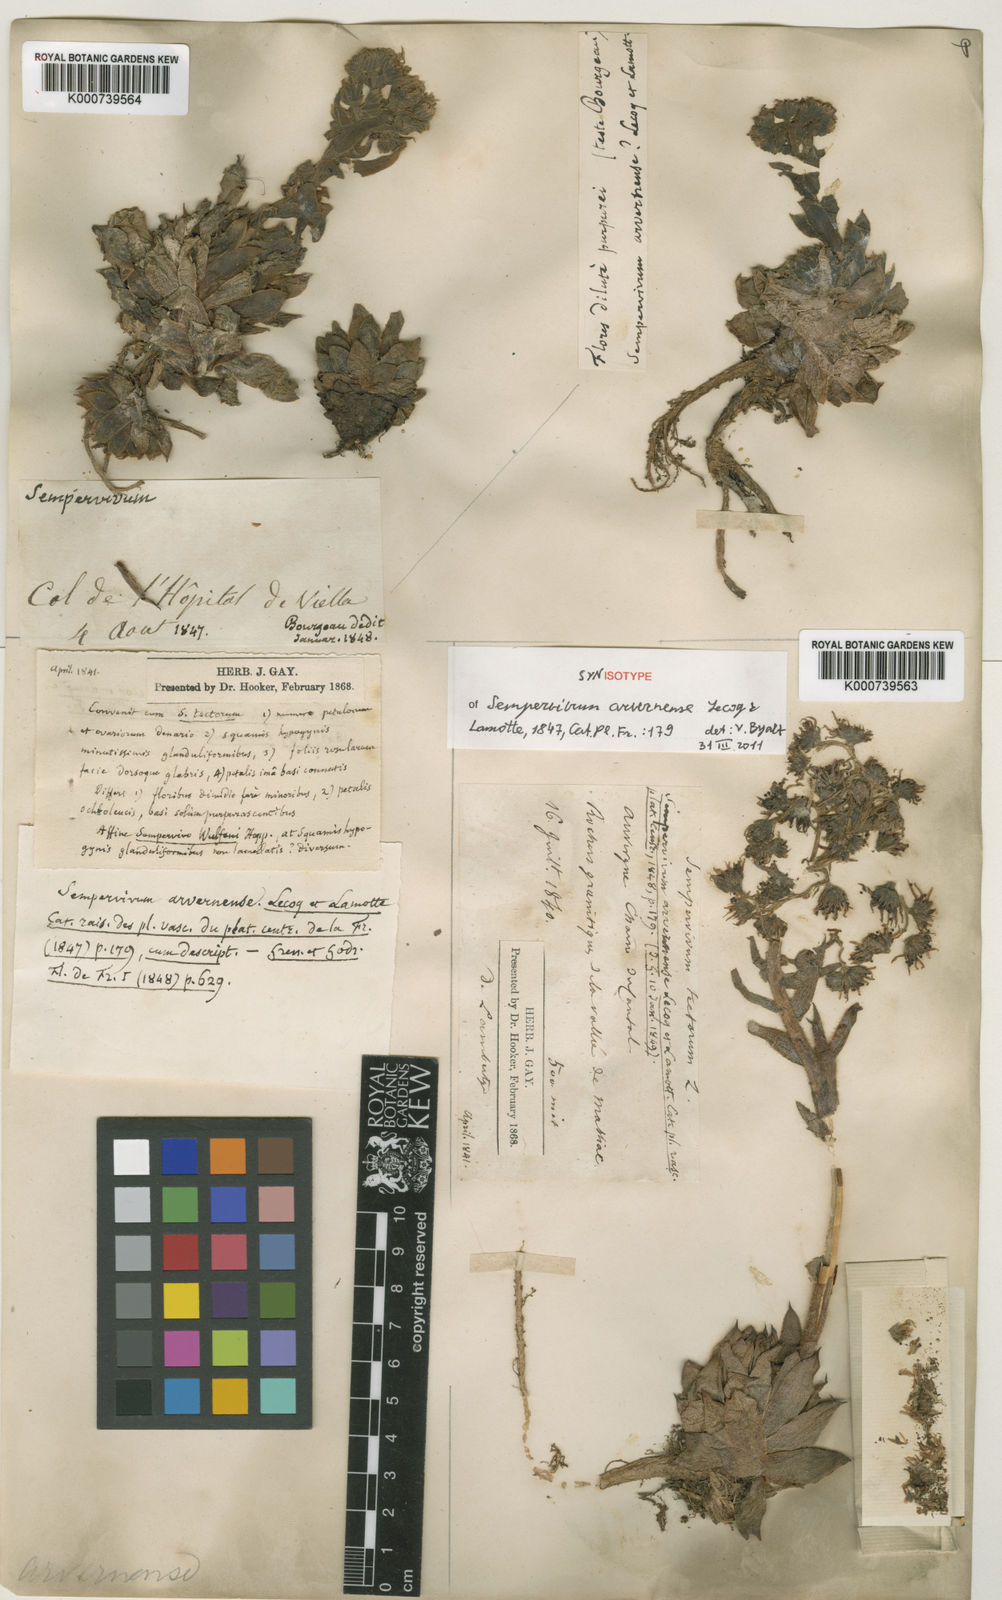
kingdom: Plantae
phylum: Tracheophyta
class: Magnoliopsida
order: Saxifragales
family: Crassulaceae
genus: Sempervivum
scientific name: Sempervivum tectorum
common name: House-leek
